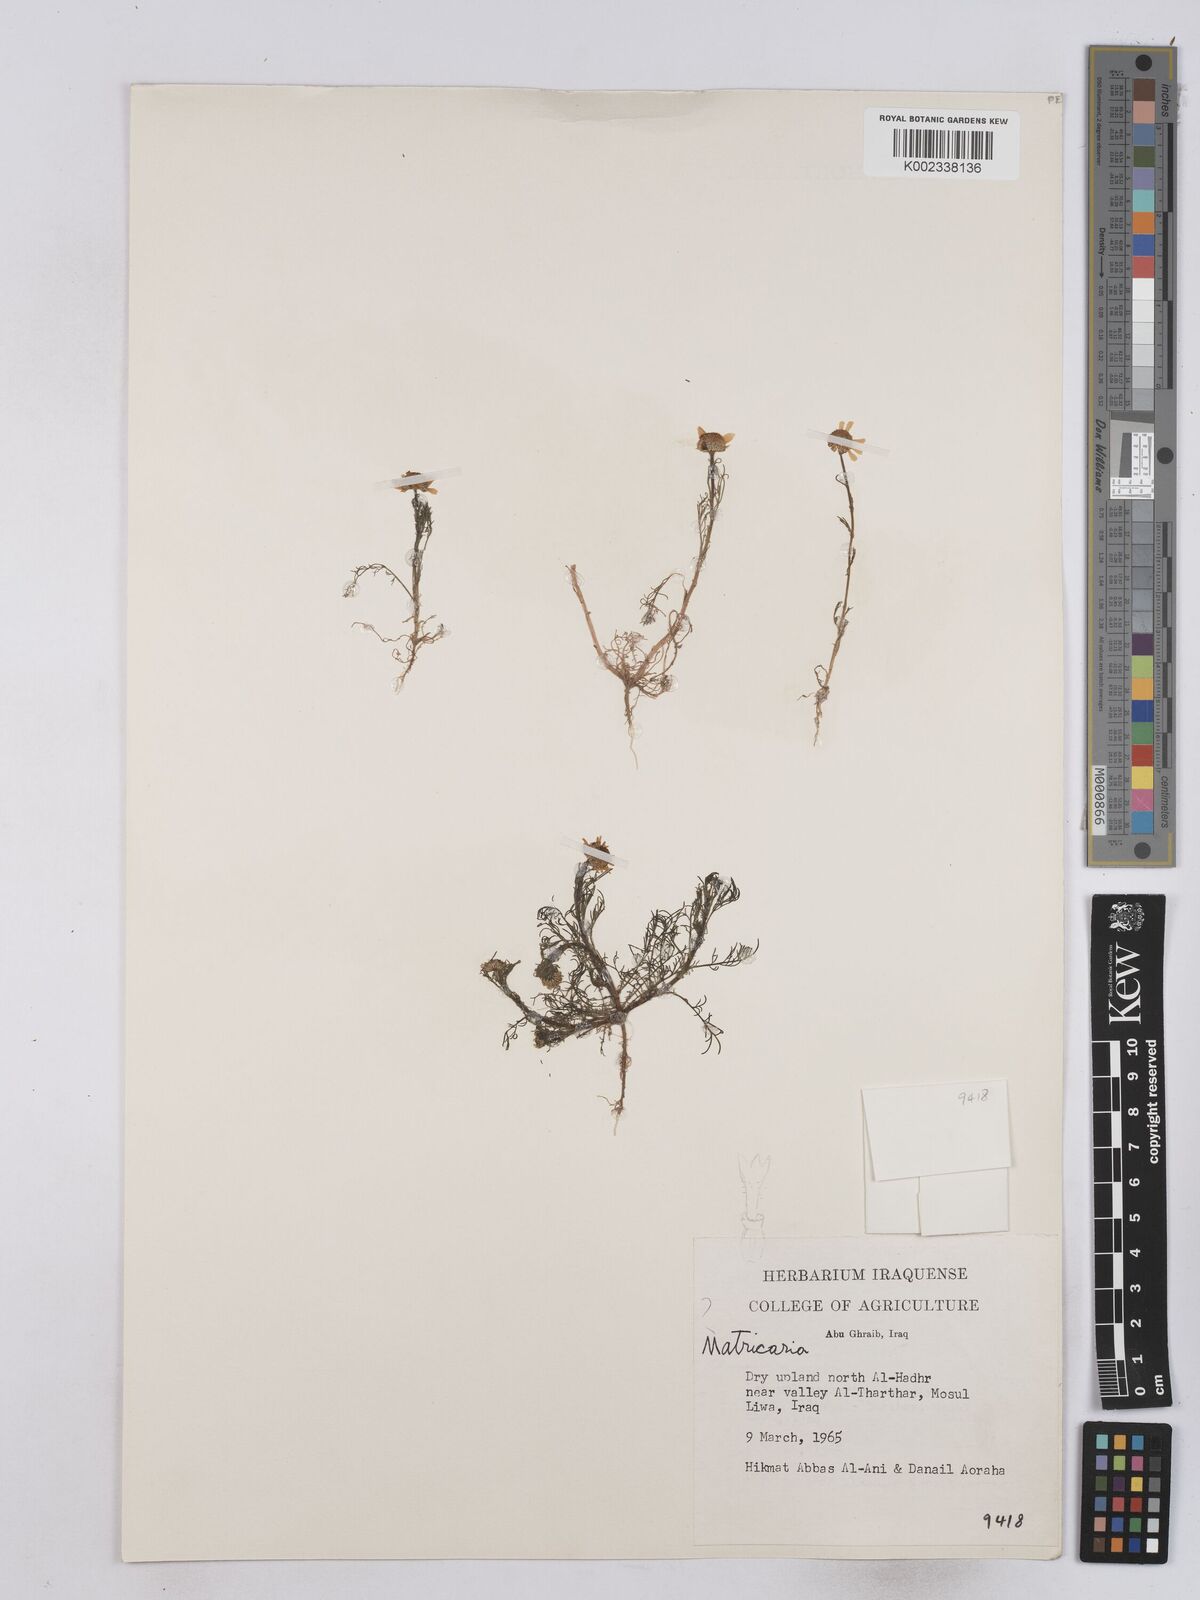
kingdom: Plantae
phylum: Tracheophyta
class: Magnoliopsida
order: Asterales
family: Asteraceae
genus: Matricaria
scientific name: Matricaria chamomilla
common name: Scented mayweed
